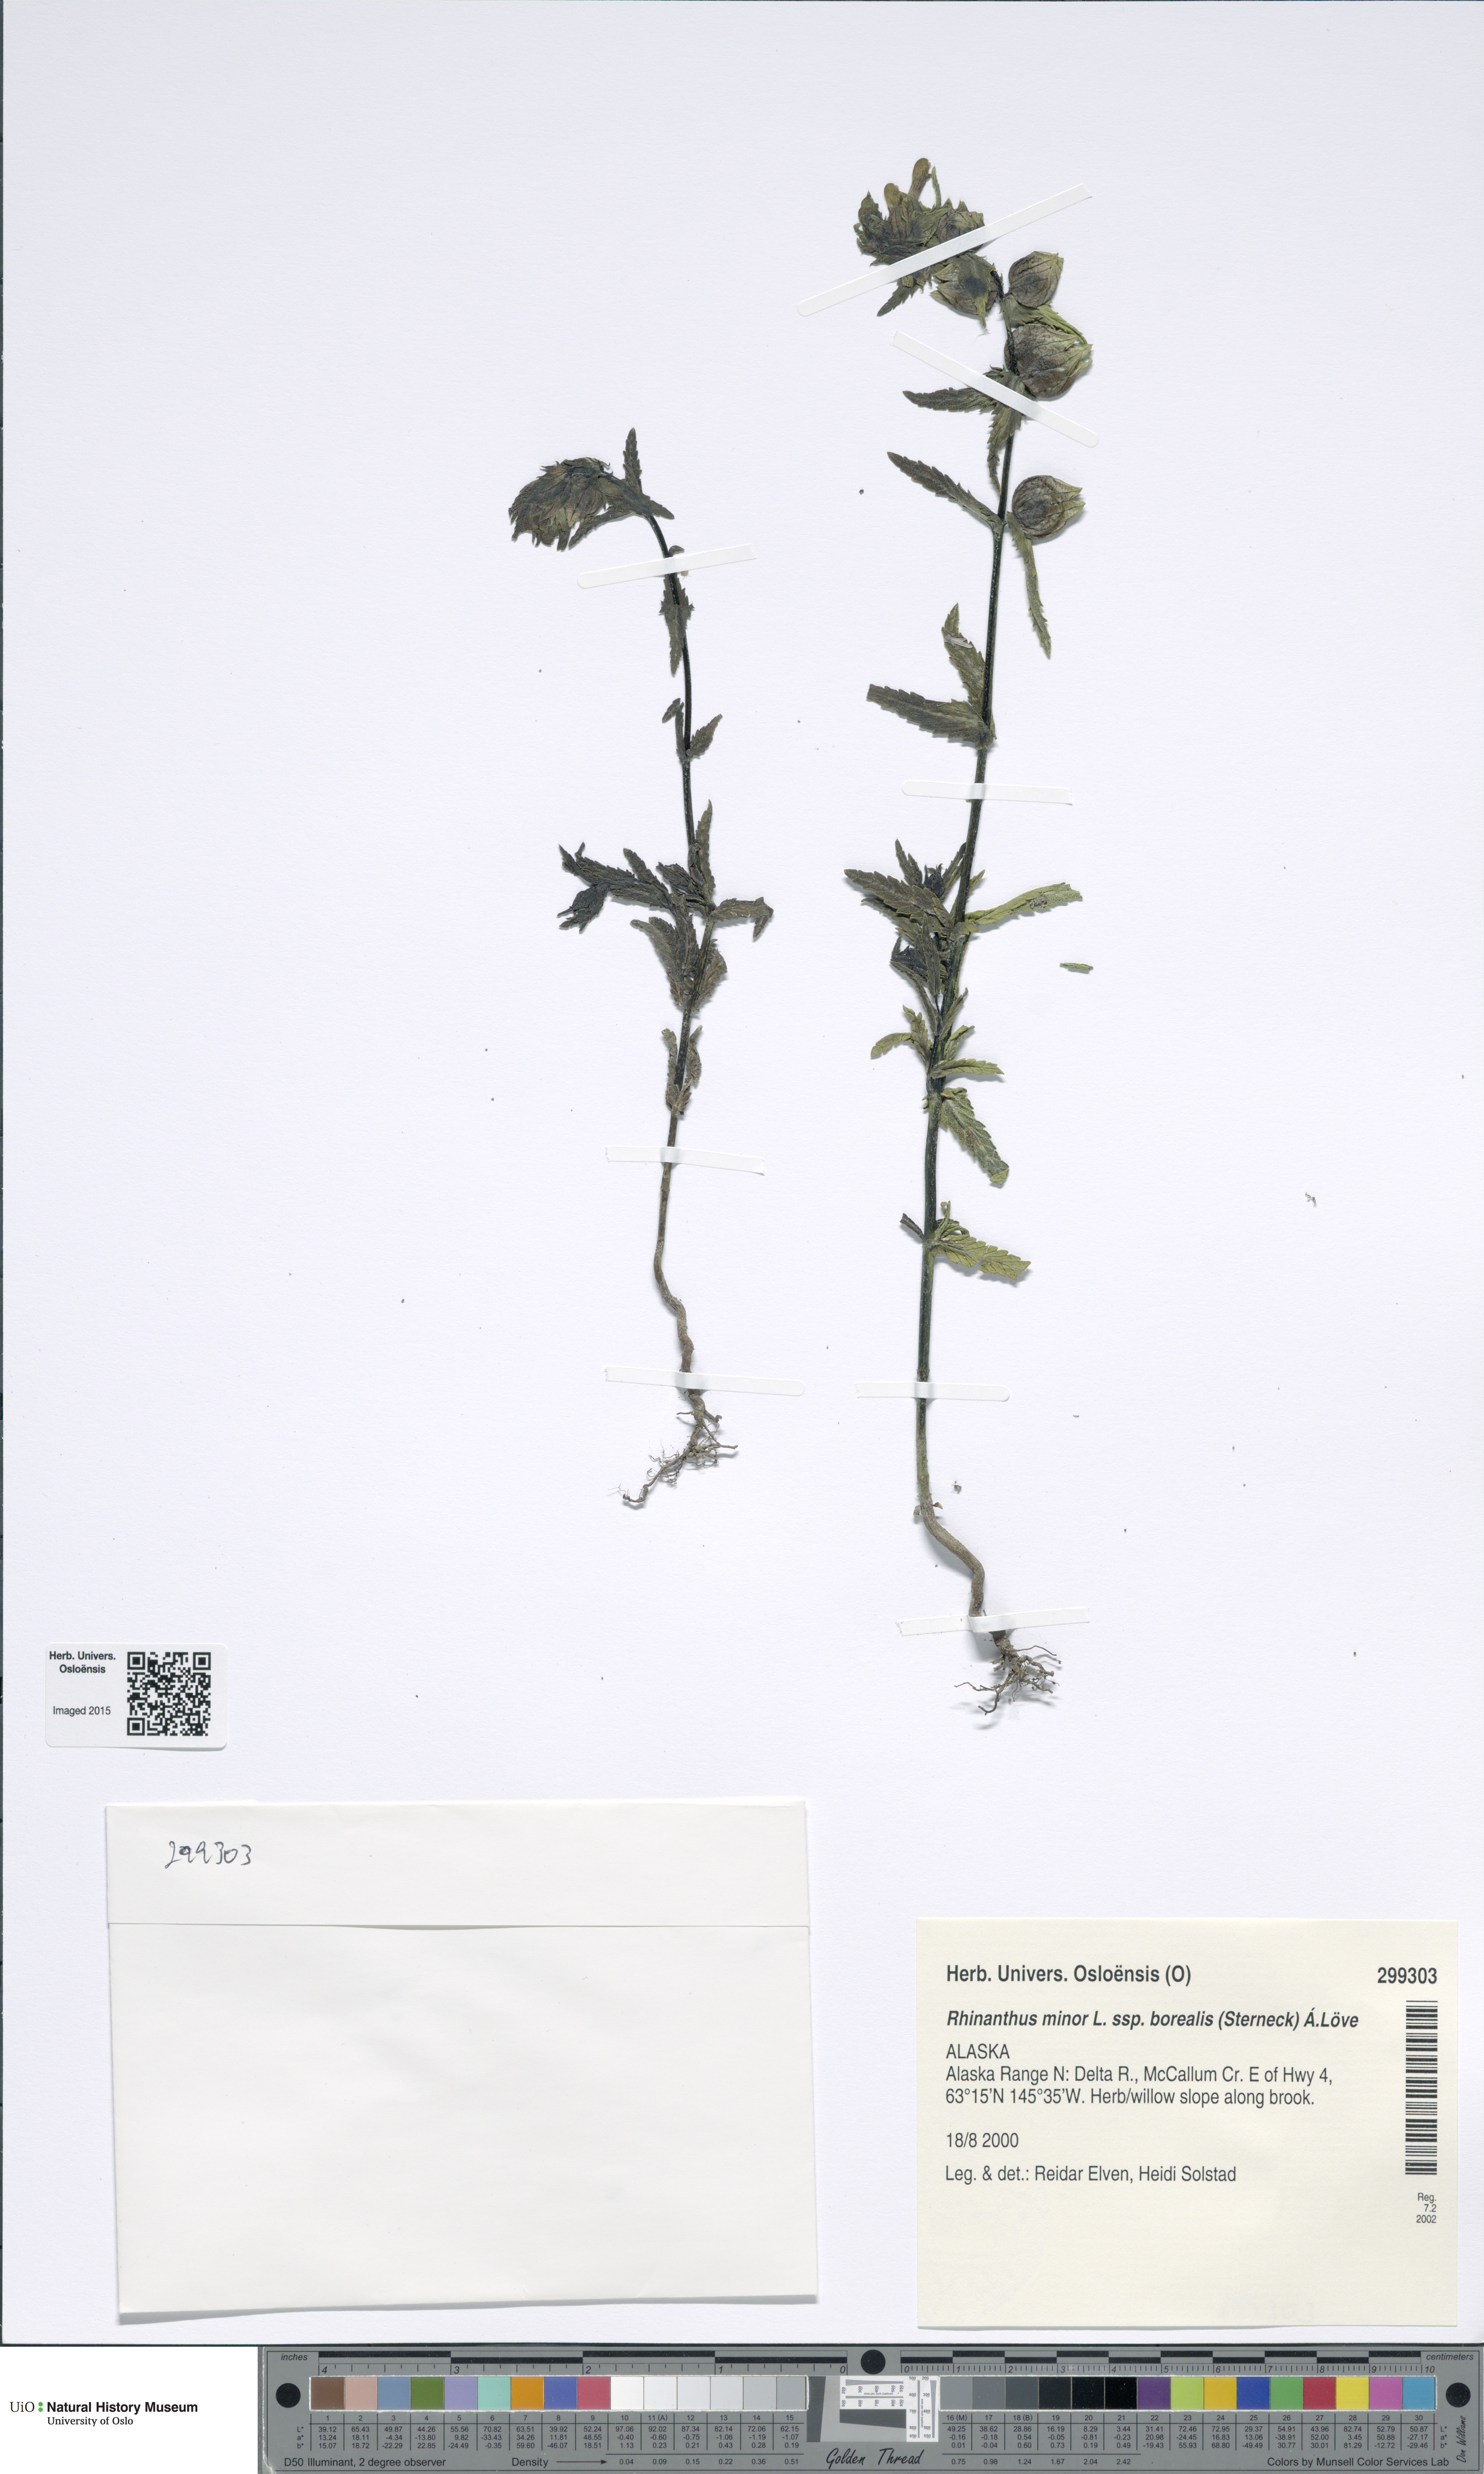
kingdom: Plantae
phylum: Tracheophyta
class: Magnoliopsida
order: Lamiales
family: Orobanchaceae
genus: Rhinanthus
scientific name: Rhinanthus groenlandicus
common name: Little yellow rattle
